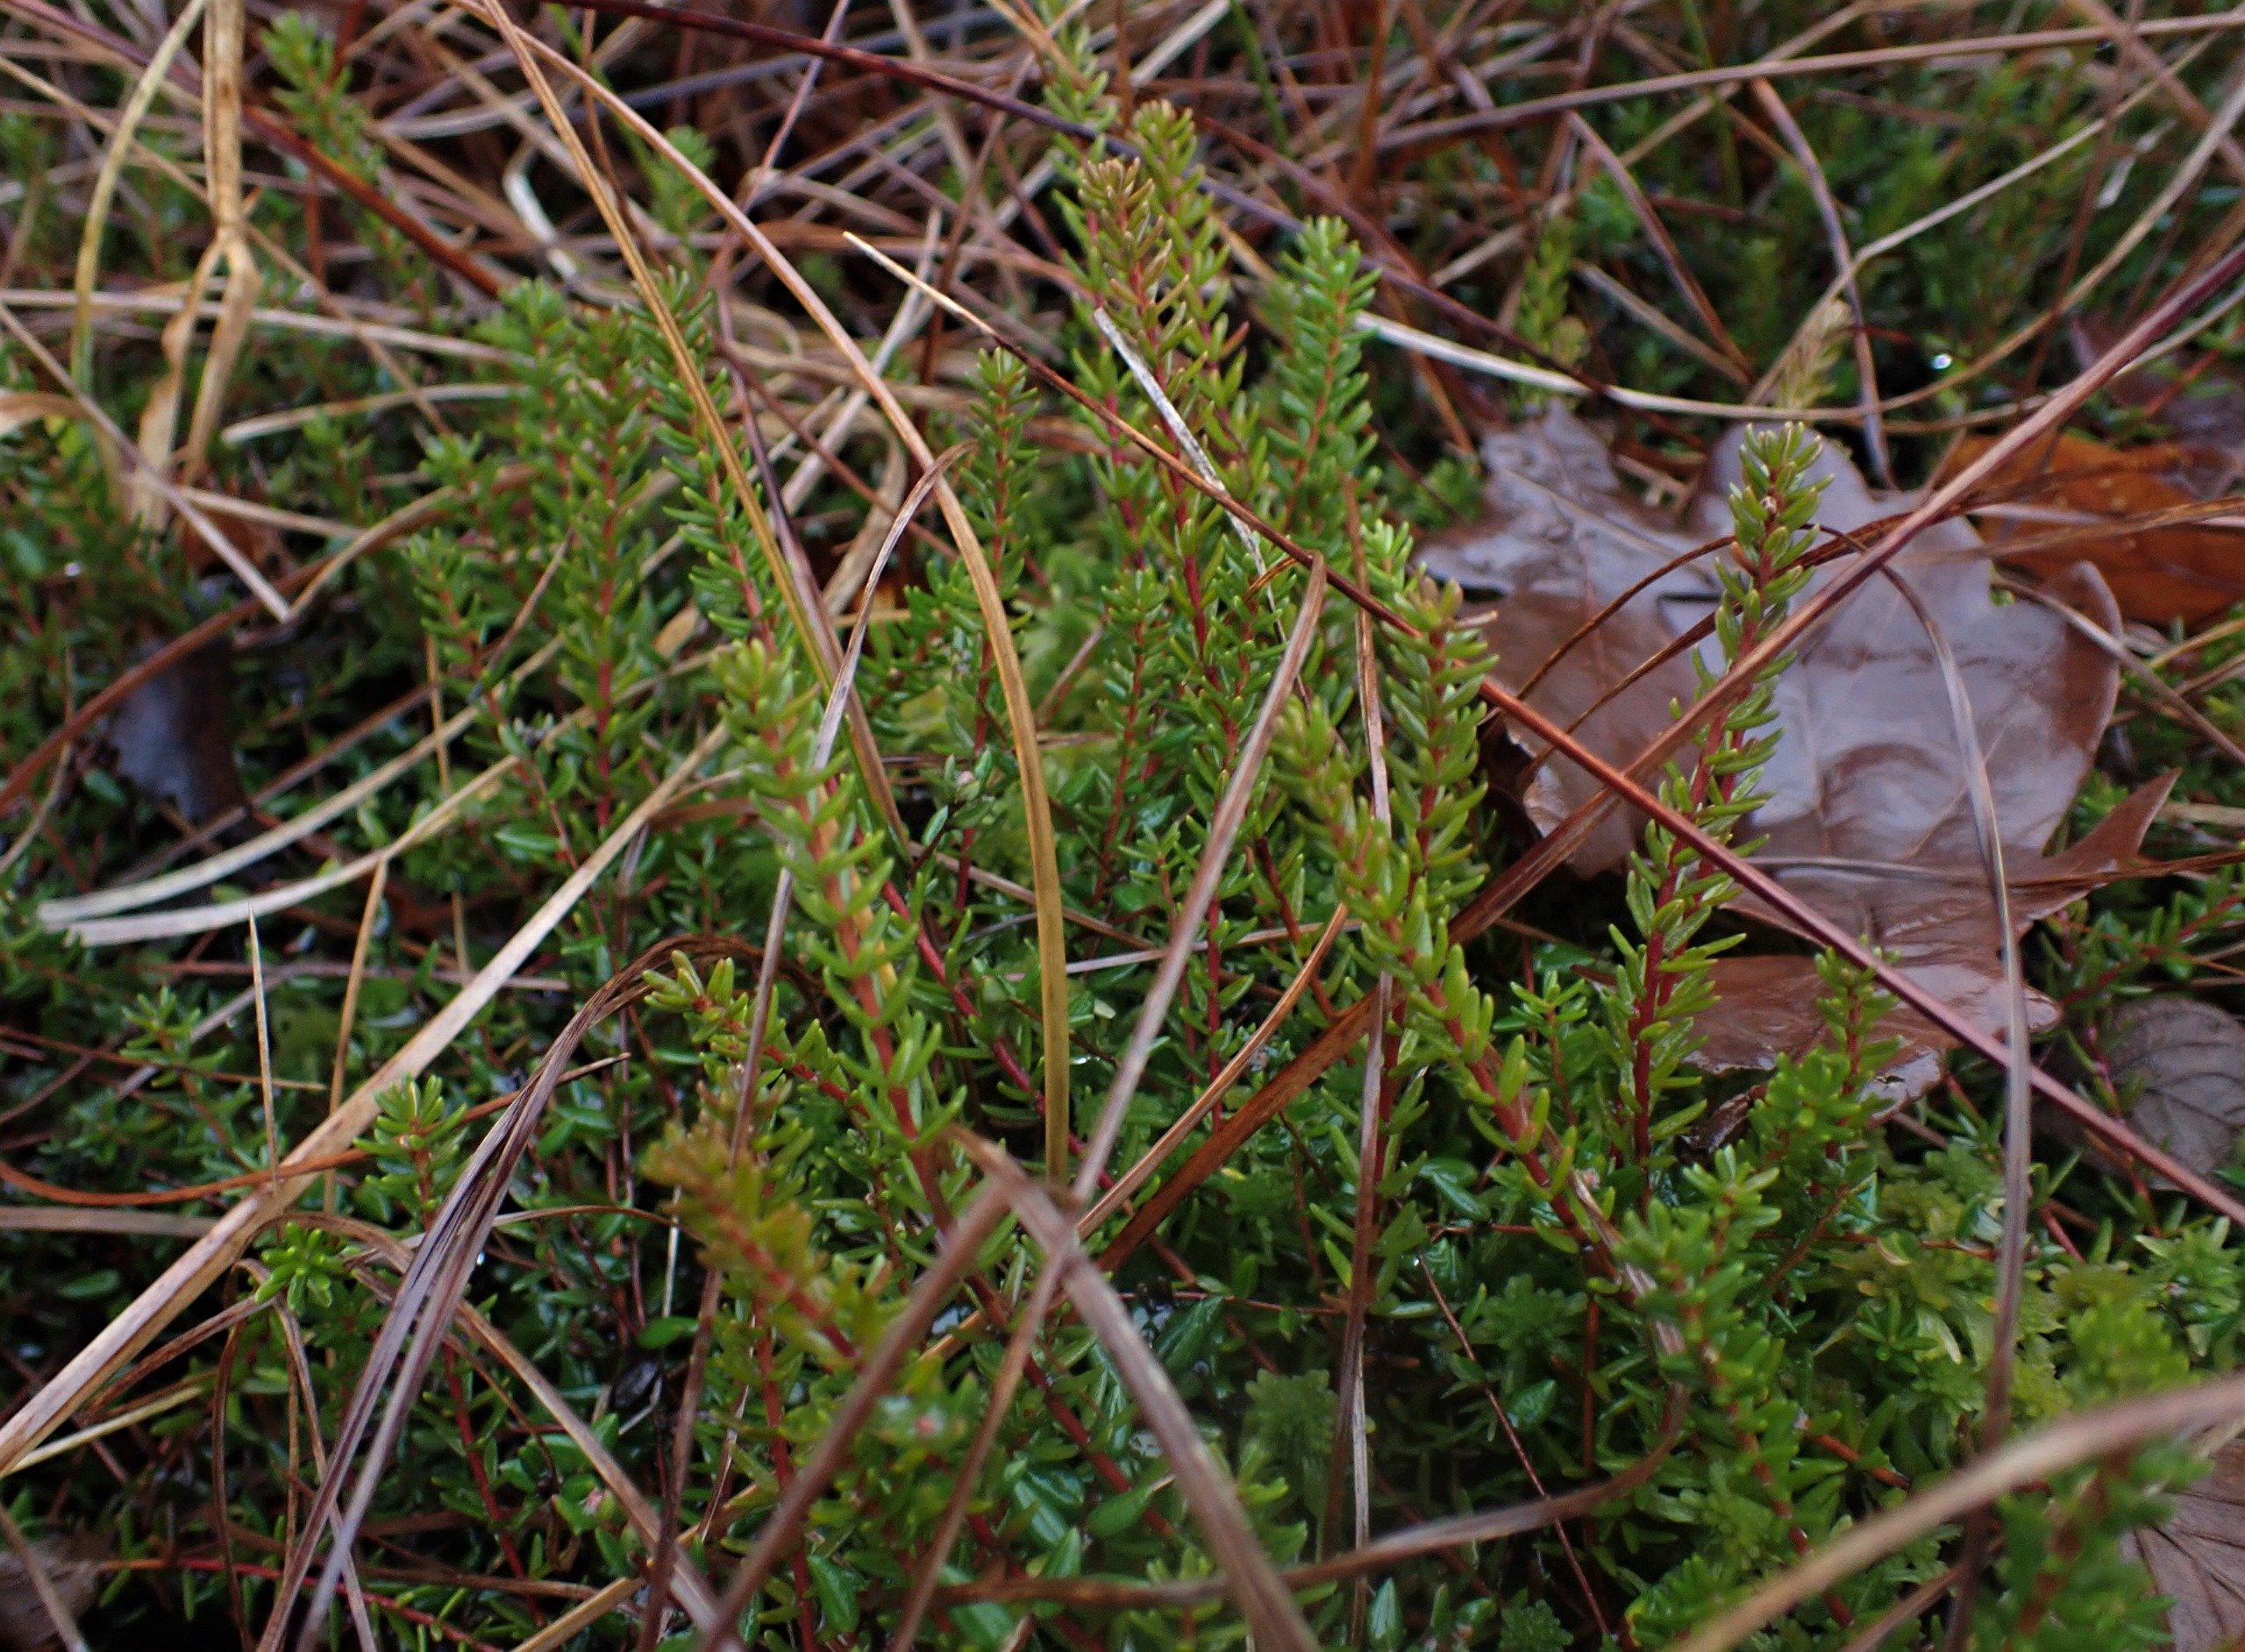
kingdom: Plantae
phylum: Tracheophyta
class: Magnoliopsida
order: Ericales
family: Ericaceae
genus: Empetrum
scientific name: Empetrum nigrum
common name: Revling
